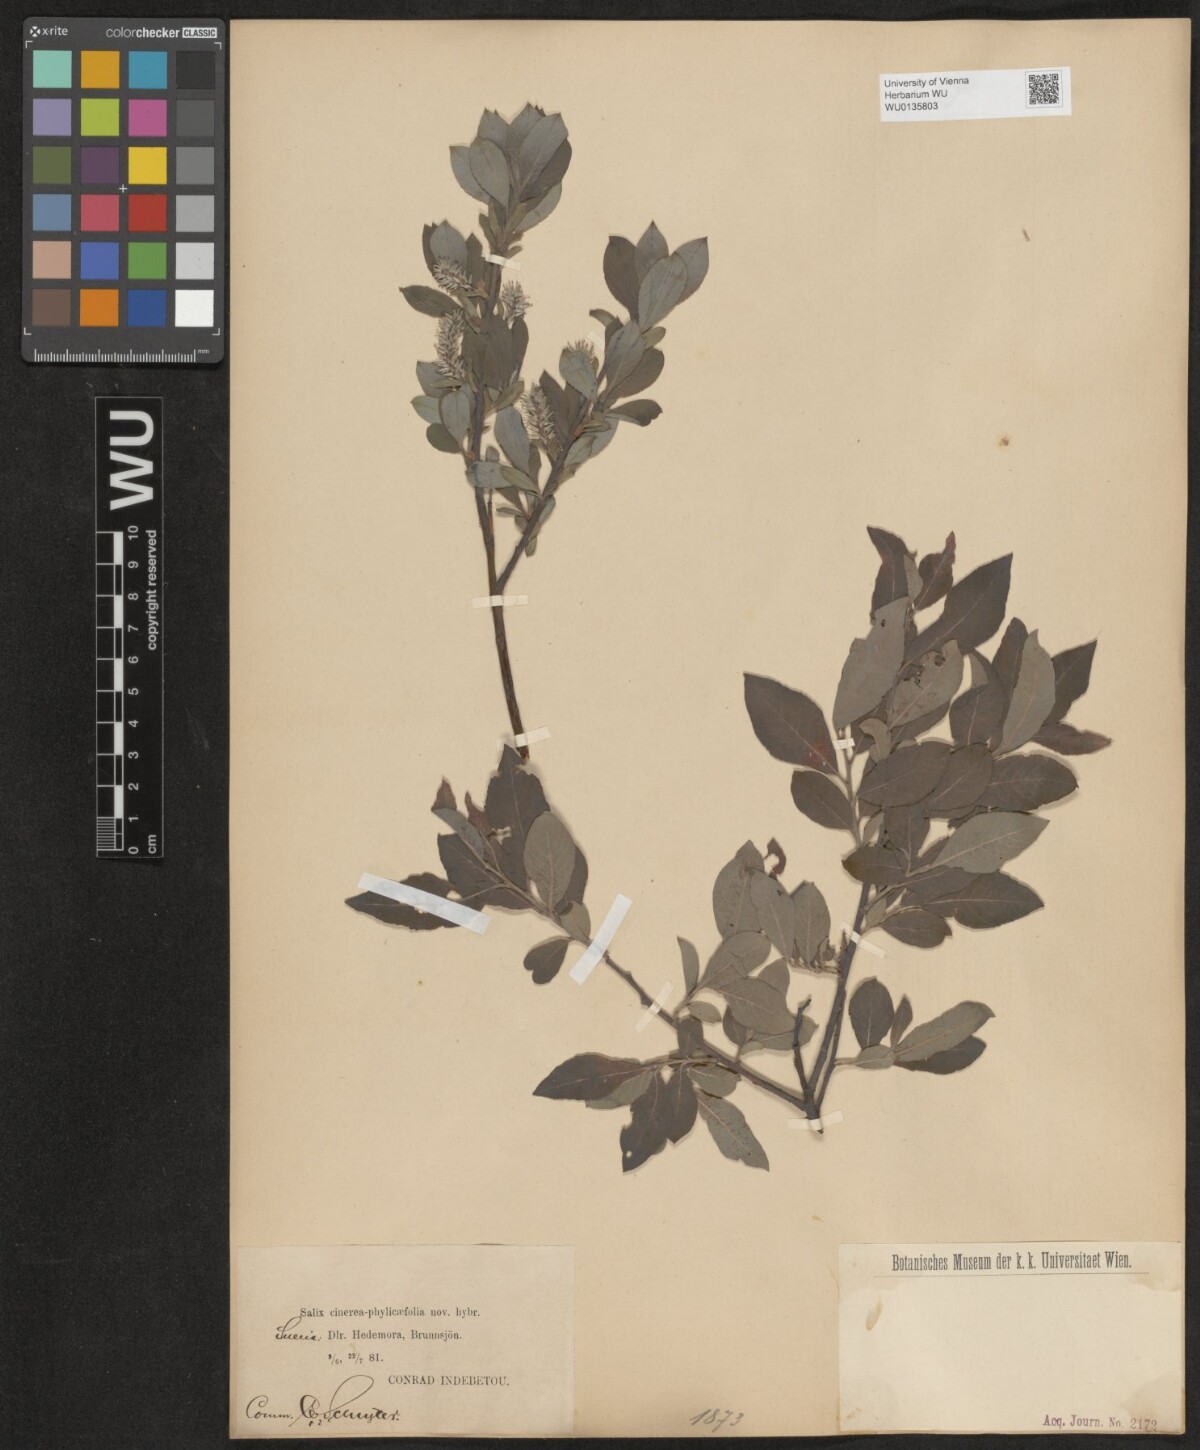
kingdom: Plantae
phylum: Tracheophyta
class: Magnoliopsida
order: Malpighiales
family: Salicaceae
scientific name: Salicaceae
